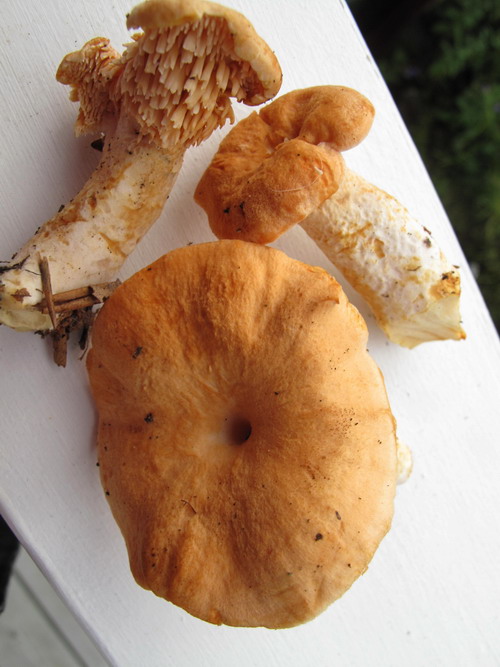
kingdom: Fungi
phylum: Basidiomycota
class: Agaricomycetes
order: Cantharellales
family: Hydnaceae
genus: Hydnum
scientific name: Hydnum rufescens
